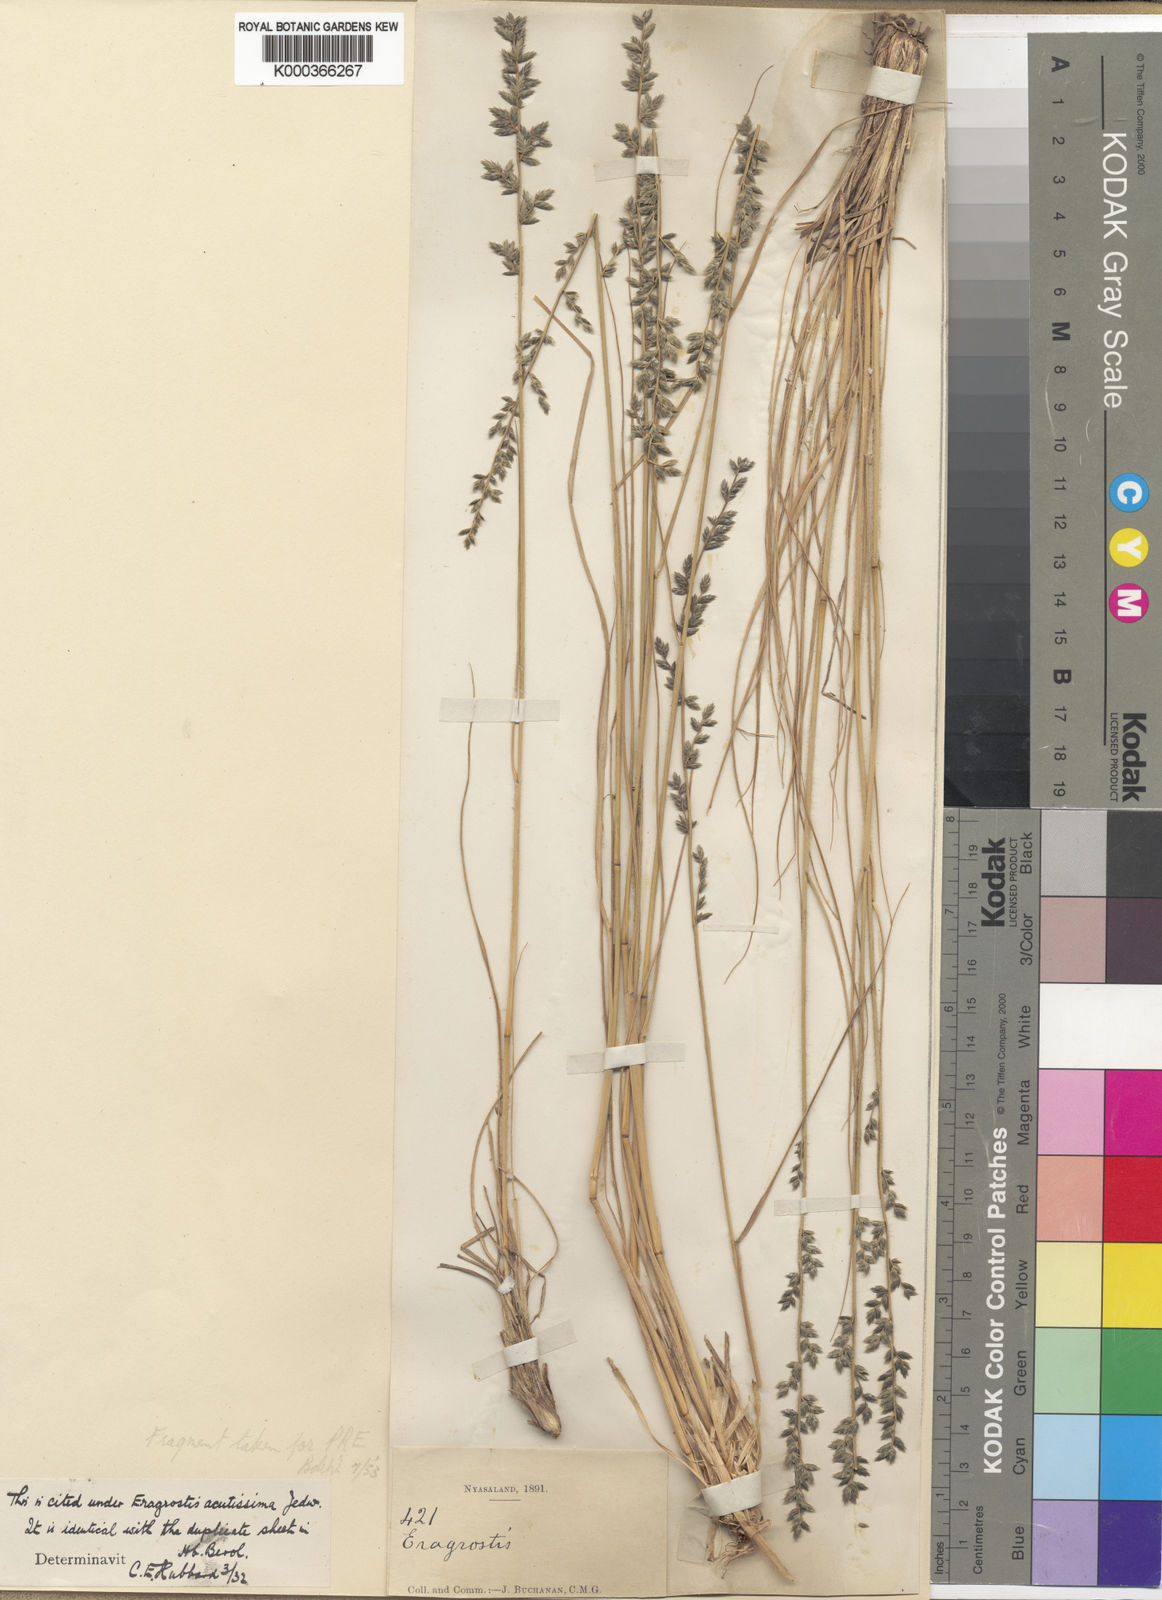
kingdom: Plantae
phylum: Tracheophyta
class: Liliopsida
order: Poales
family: Poaceae
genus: Eragrostis
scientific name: Eragrostis nindensis
